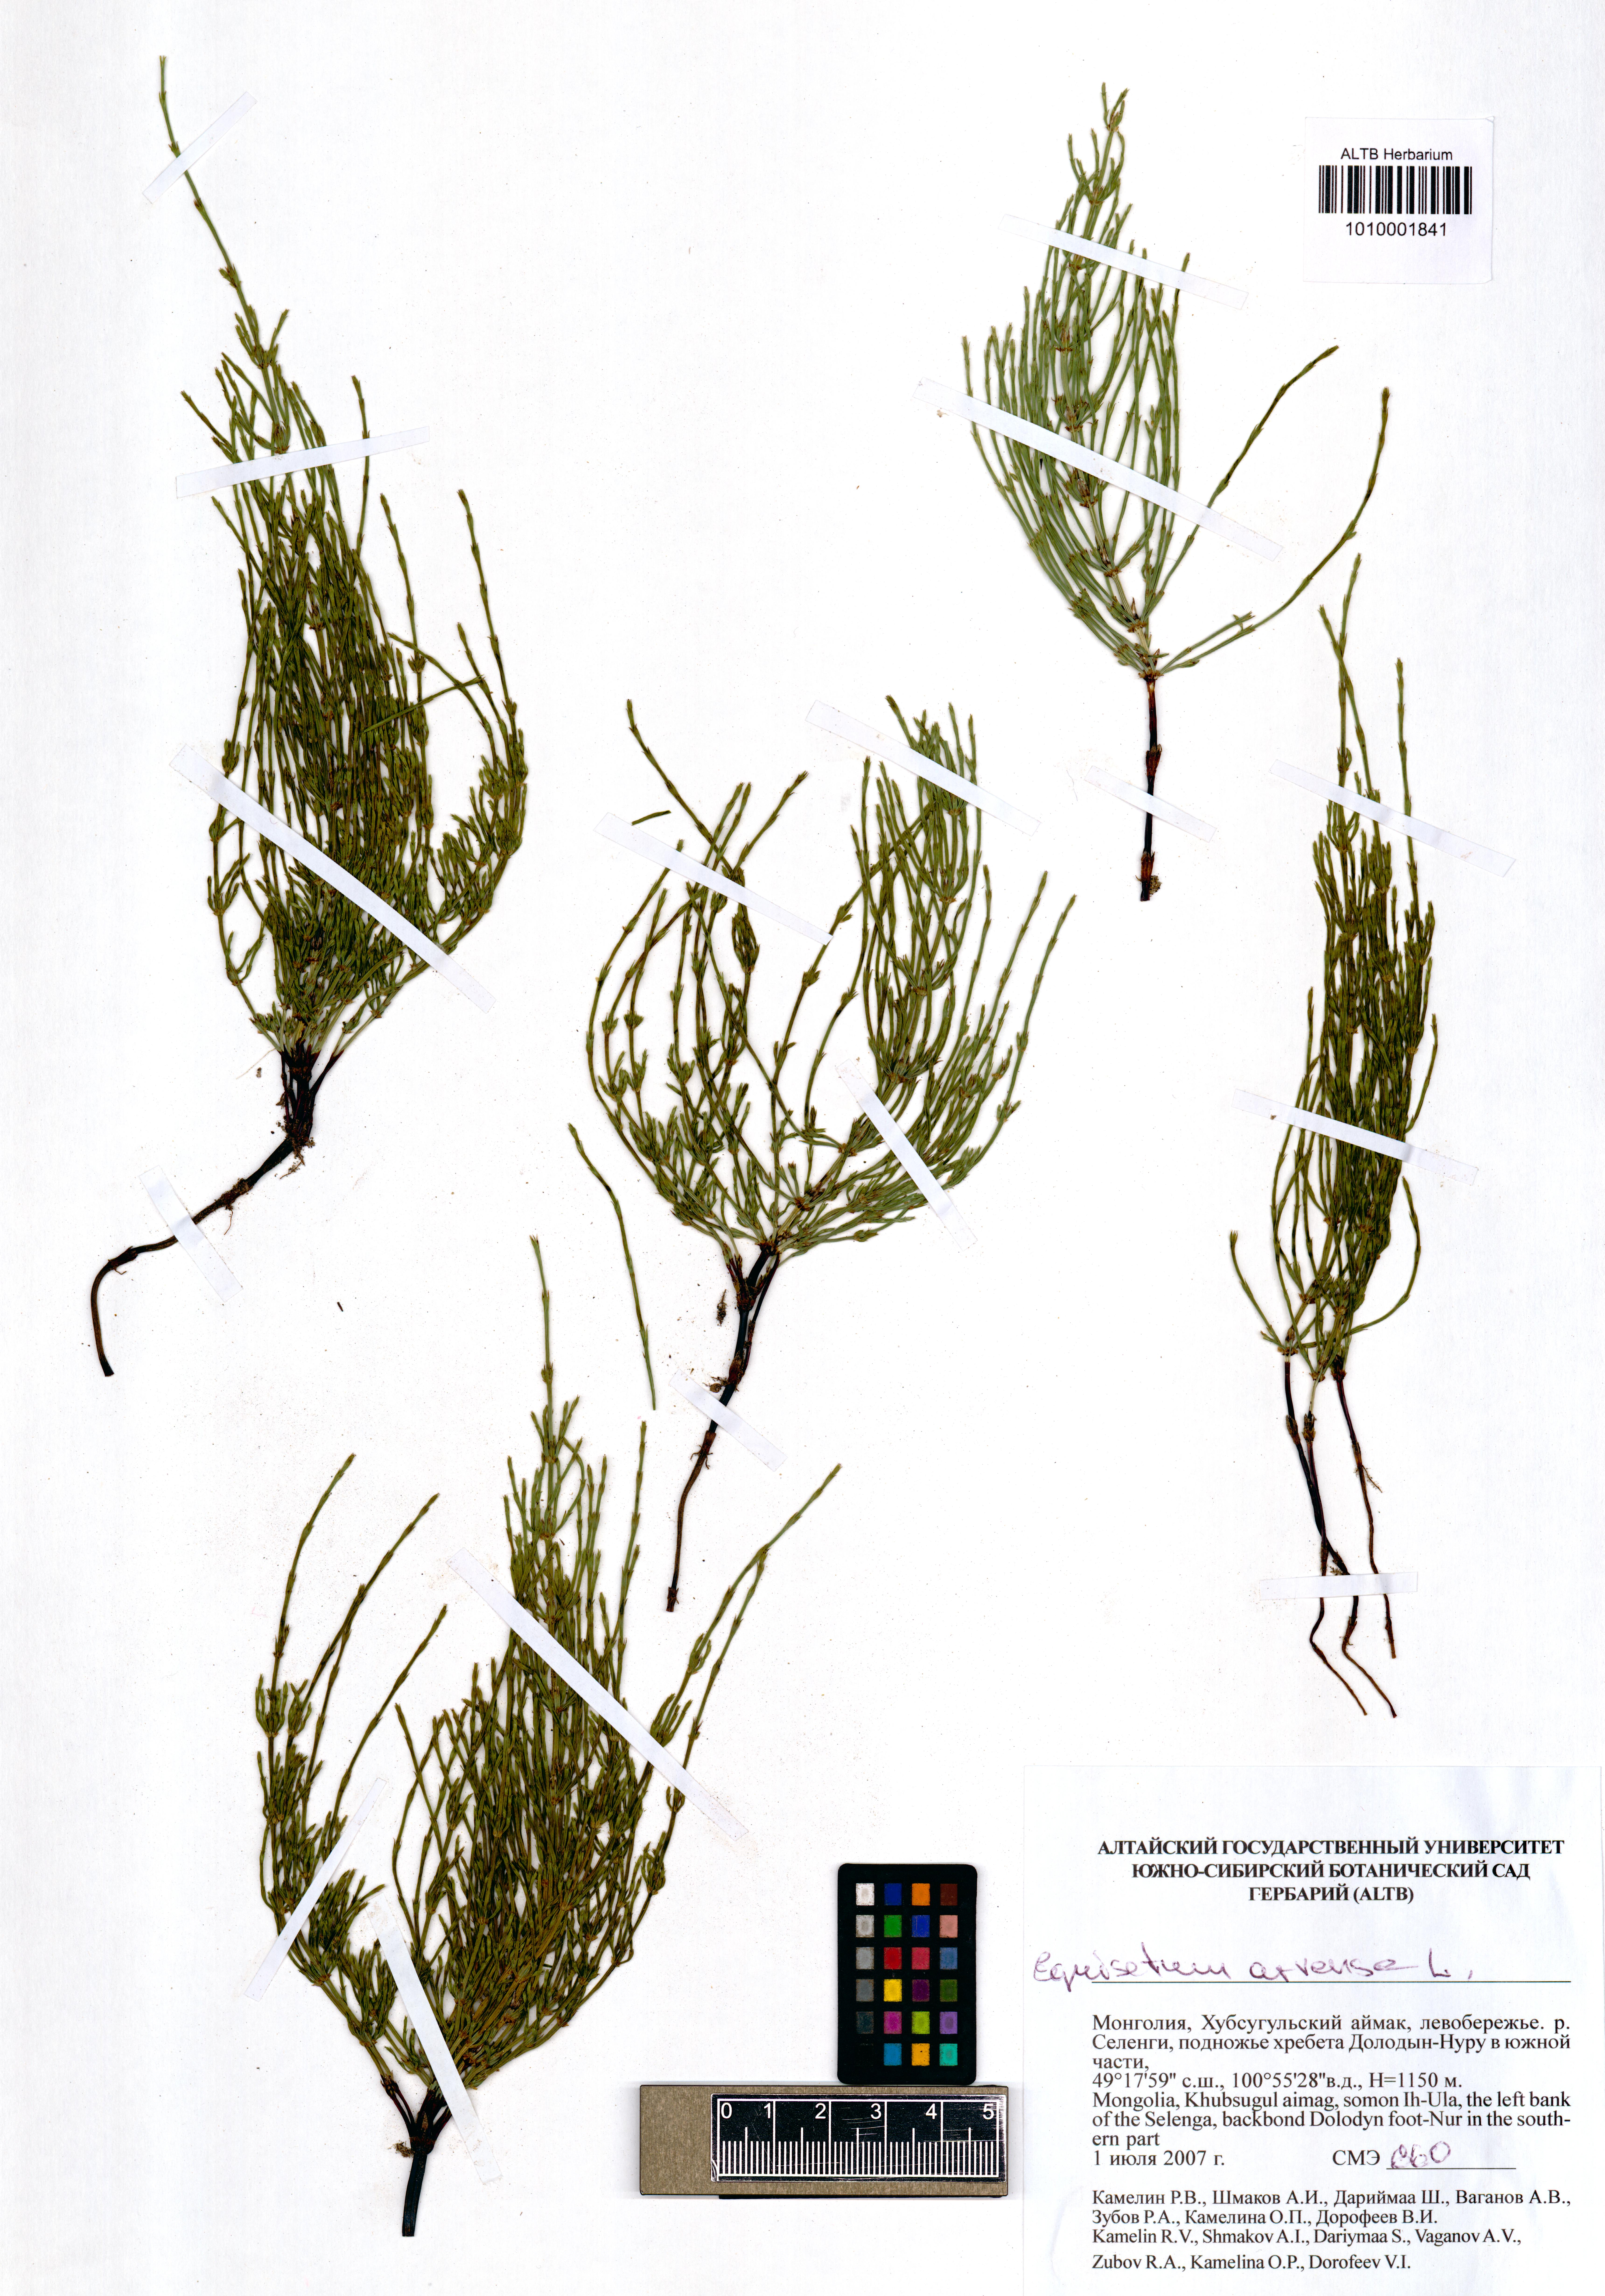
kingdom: Plantae
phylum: Tracheophyta
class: Polypodiopsida
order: Equisetales
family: Equisetaceae
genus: Equisetum
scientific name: Equisetum arvense
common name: Field horsetail
